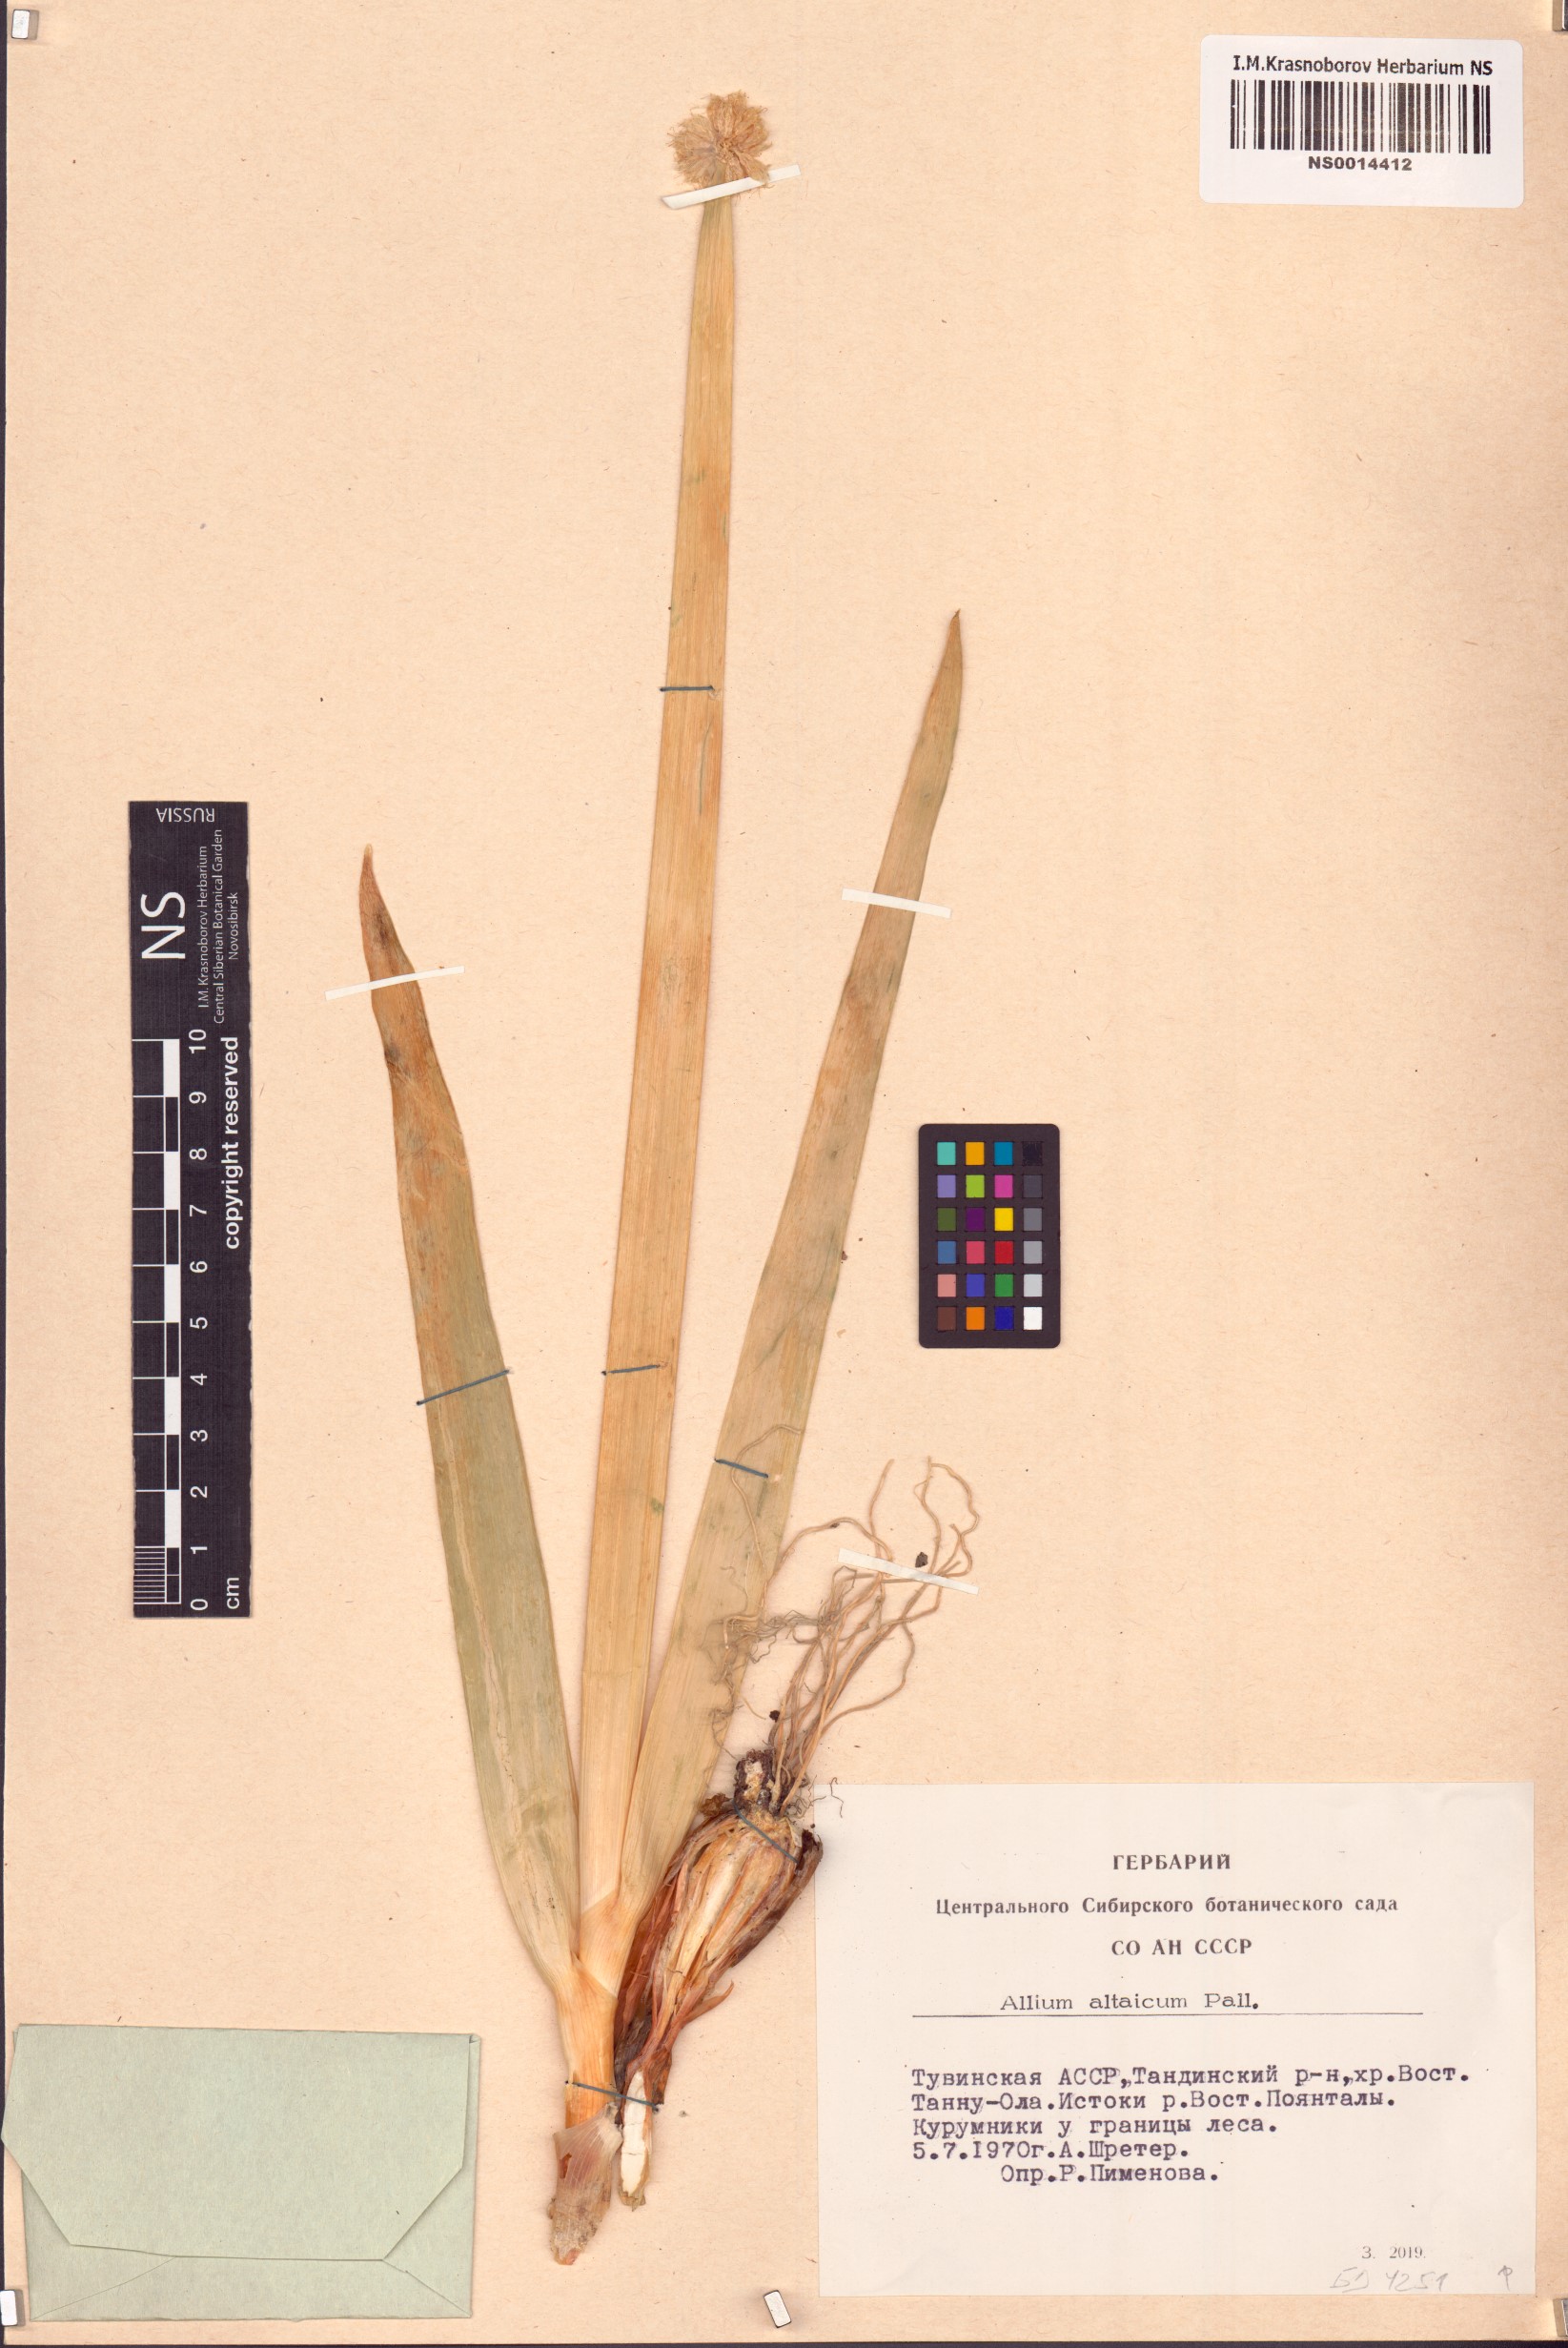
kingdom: Plantae
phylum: Tracheophyta
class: Liliopsida
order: Asparagales
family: Amaryllidaceae
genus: Allium
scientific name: Allium altaicum
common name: Altai onion
